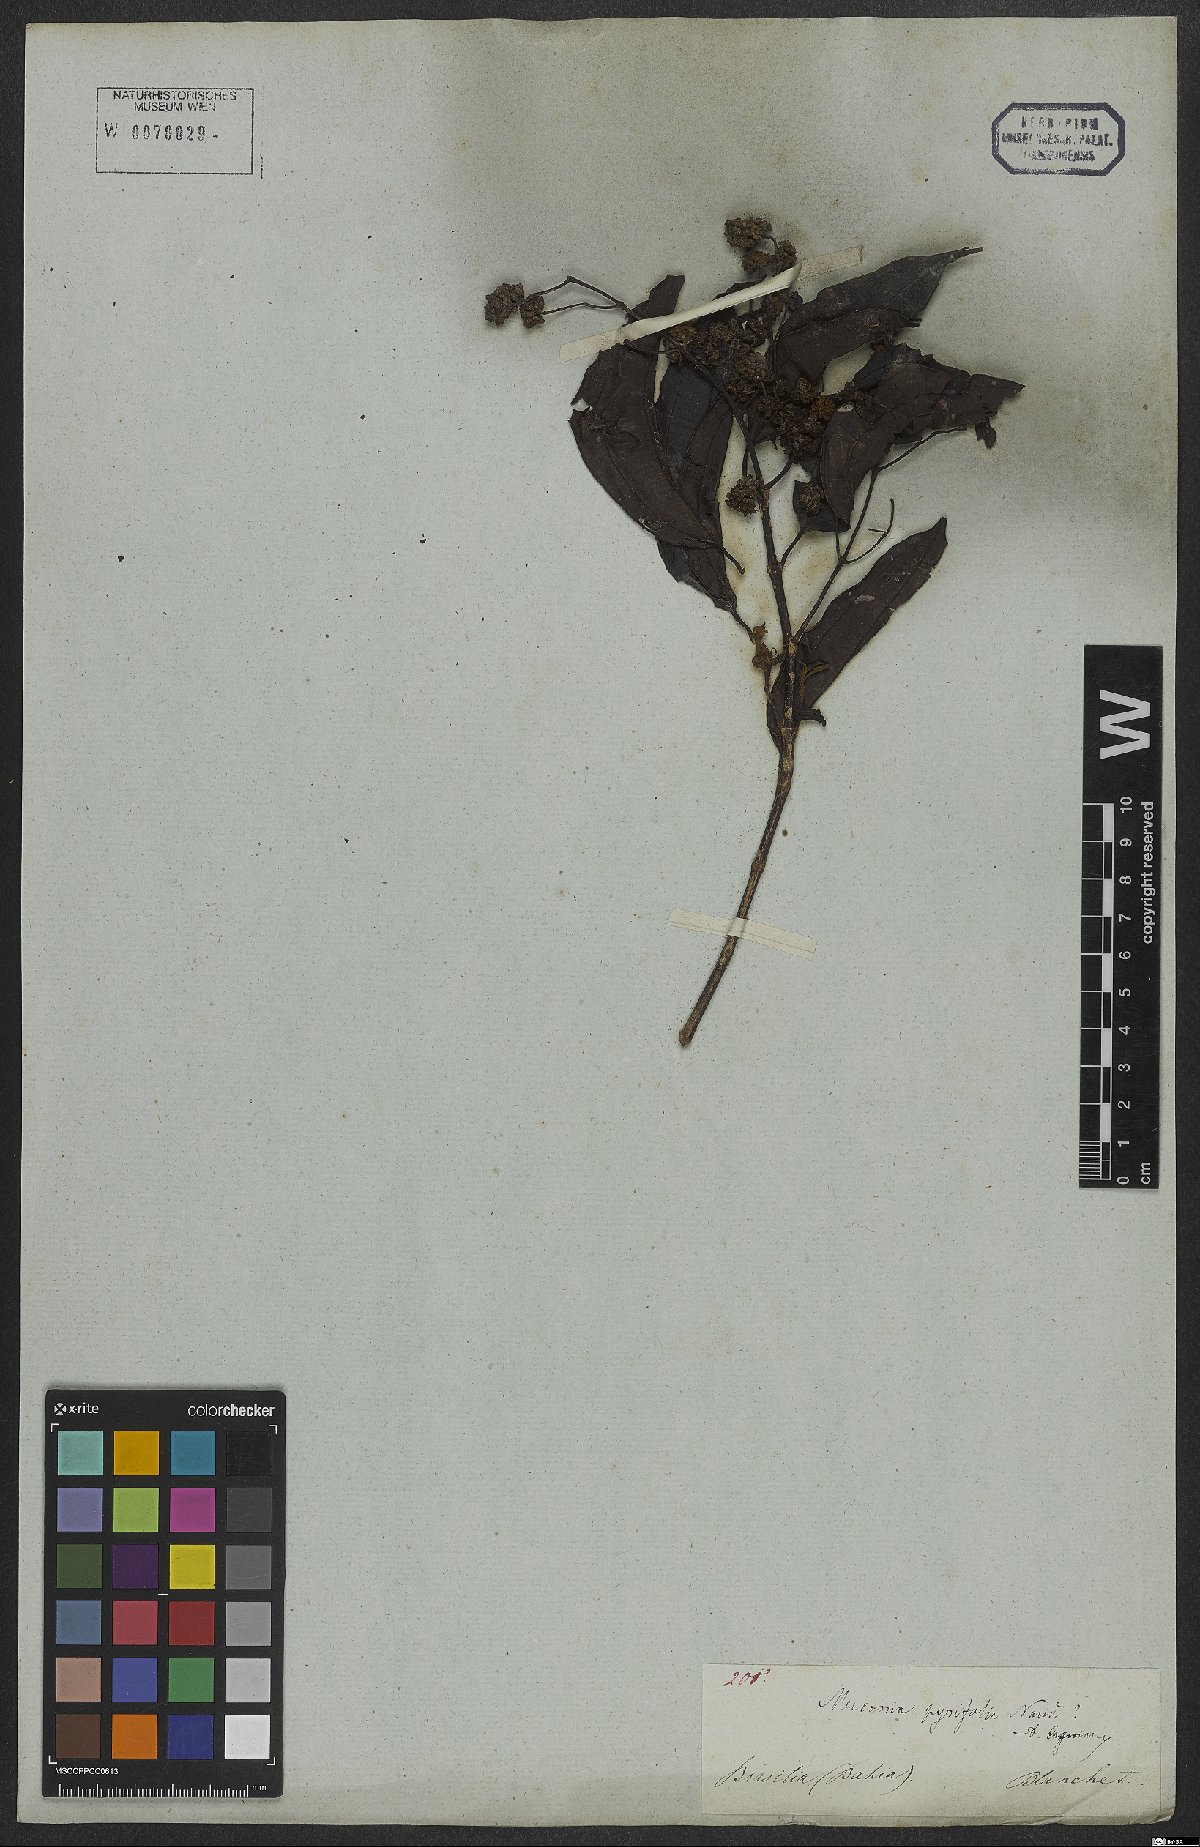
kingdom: Plantae
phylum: Tracheophyta
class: Magnoliopsida
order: Myrtales
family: Melastomataceae
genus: Miconia
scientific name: Miconia pyrifolia
